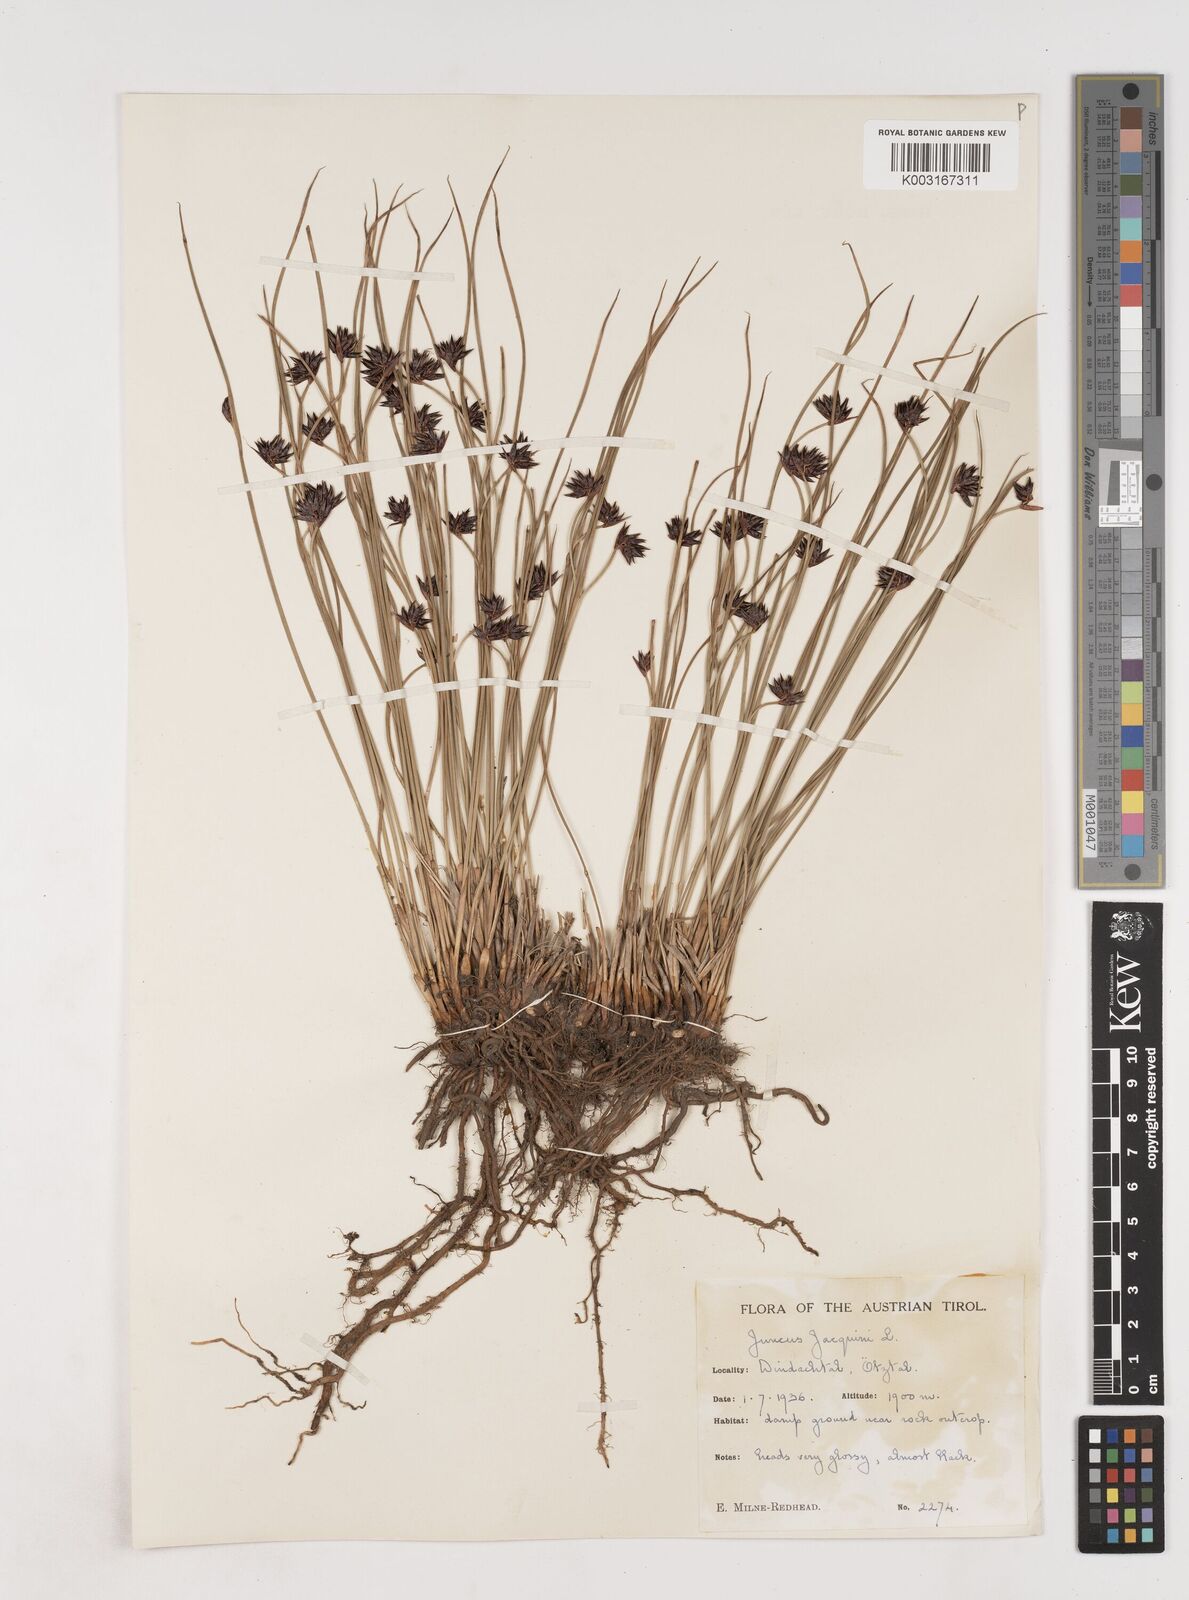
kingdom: Plantae
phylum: Tracheophyta
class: Liliopsida
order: Poales
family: Juncaceae
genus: Juncus
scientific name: Juncus jacquinii
